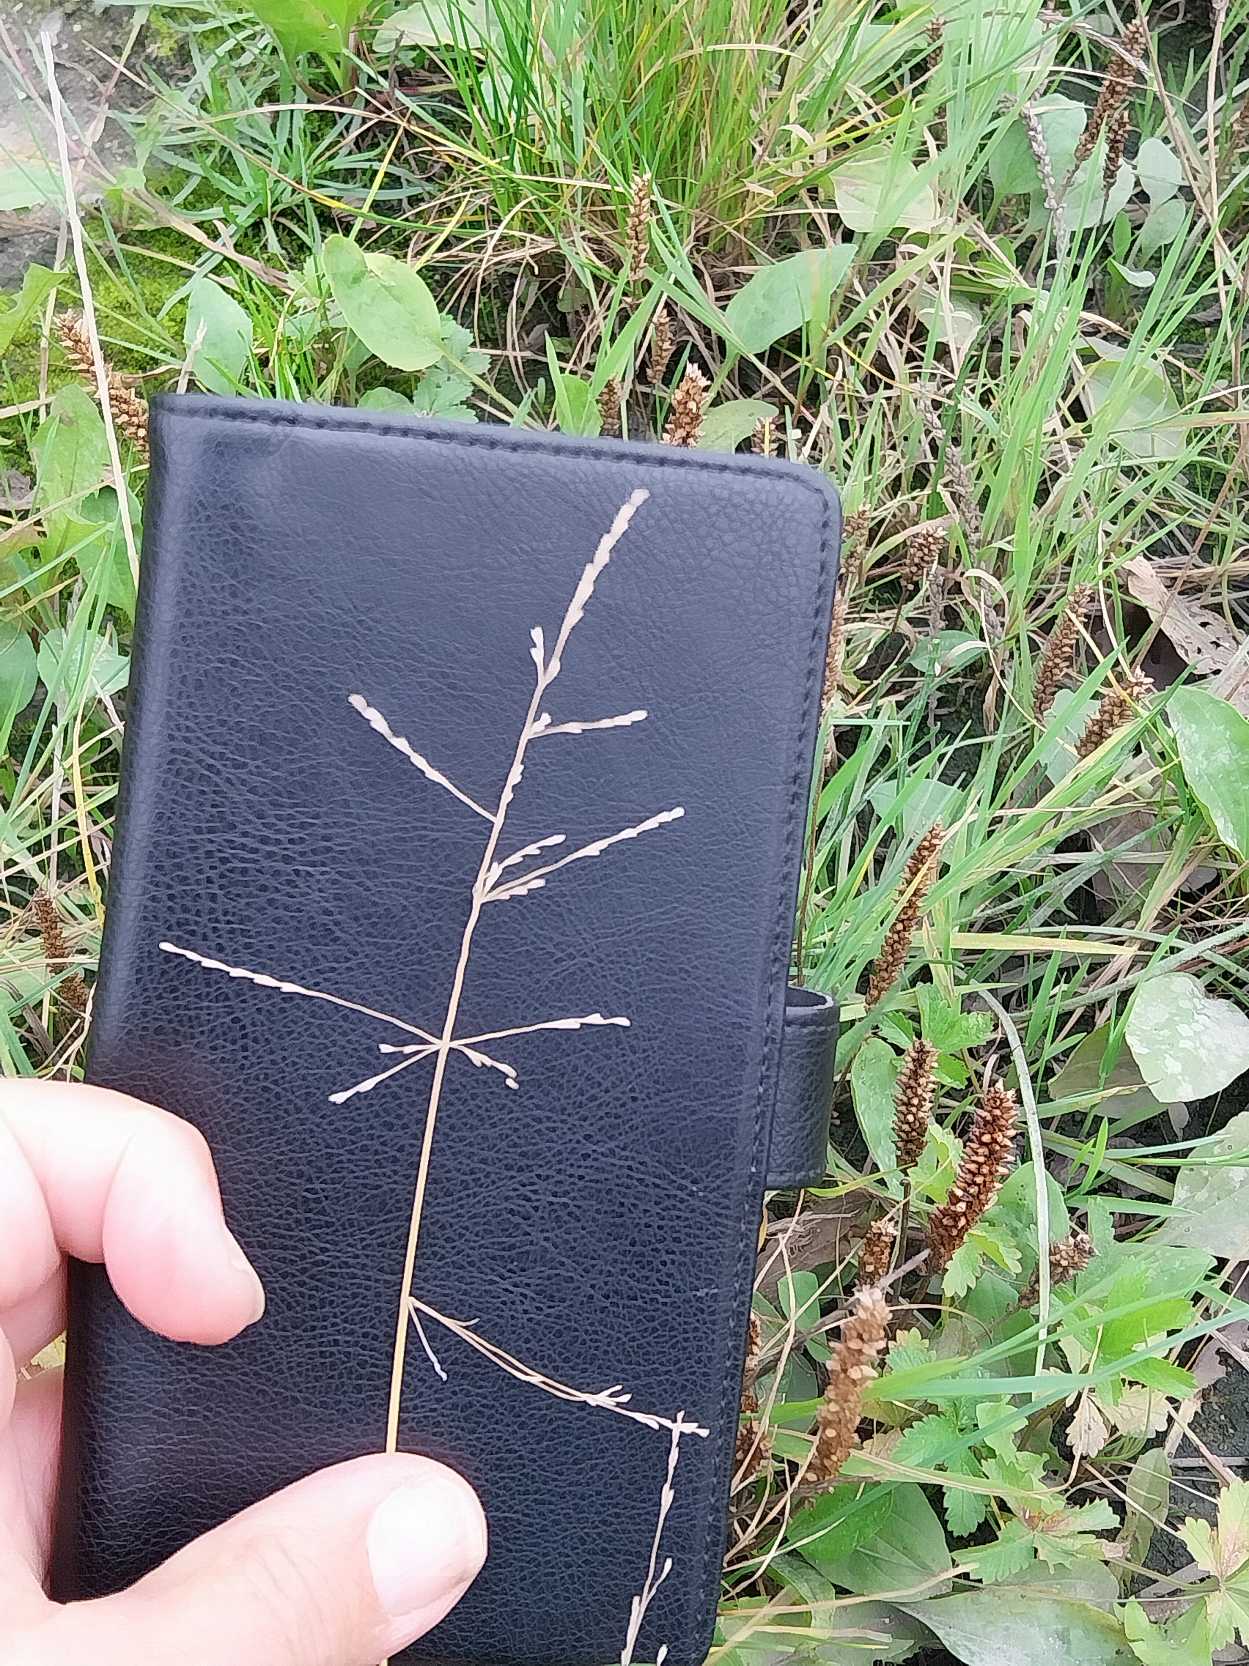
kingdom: Plantae
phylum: Tracheophyta
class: Liliopsida
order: Poales
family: Poaceae
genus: Puccinellia
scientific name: Puccinellia distans
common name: Udspærret annelgræs
